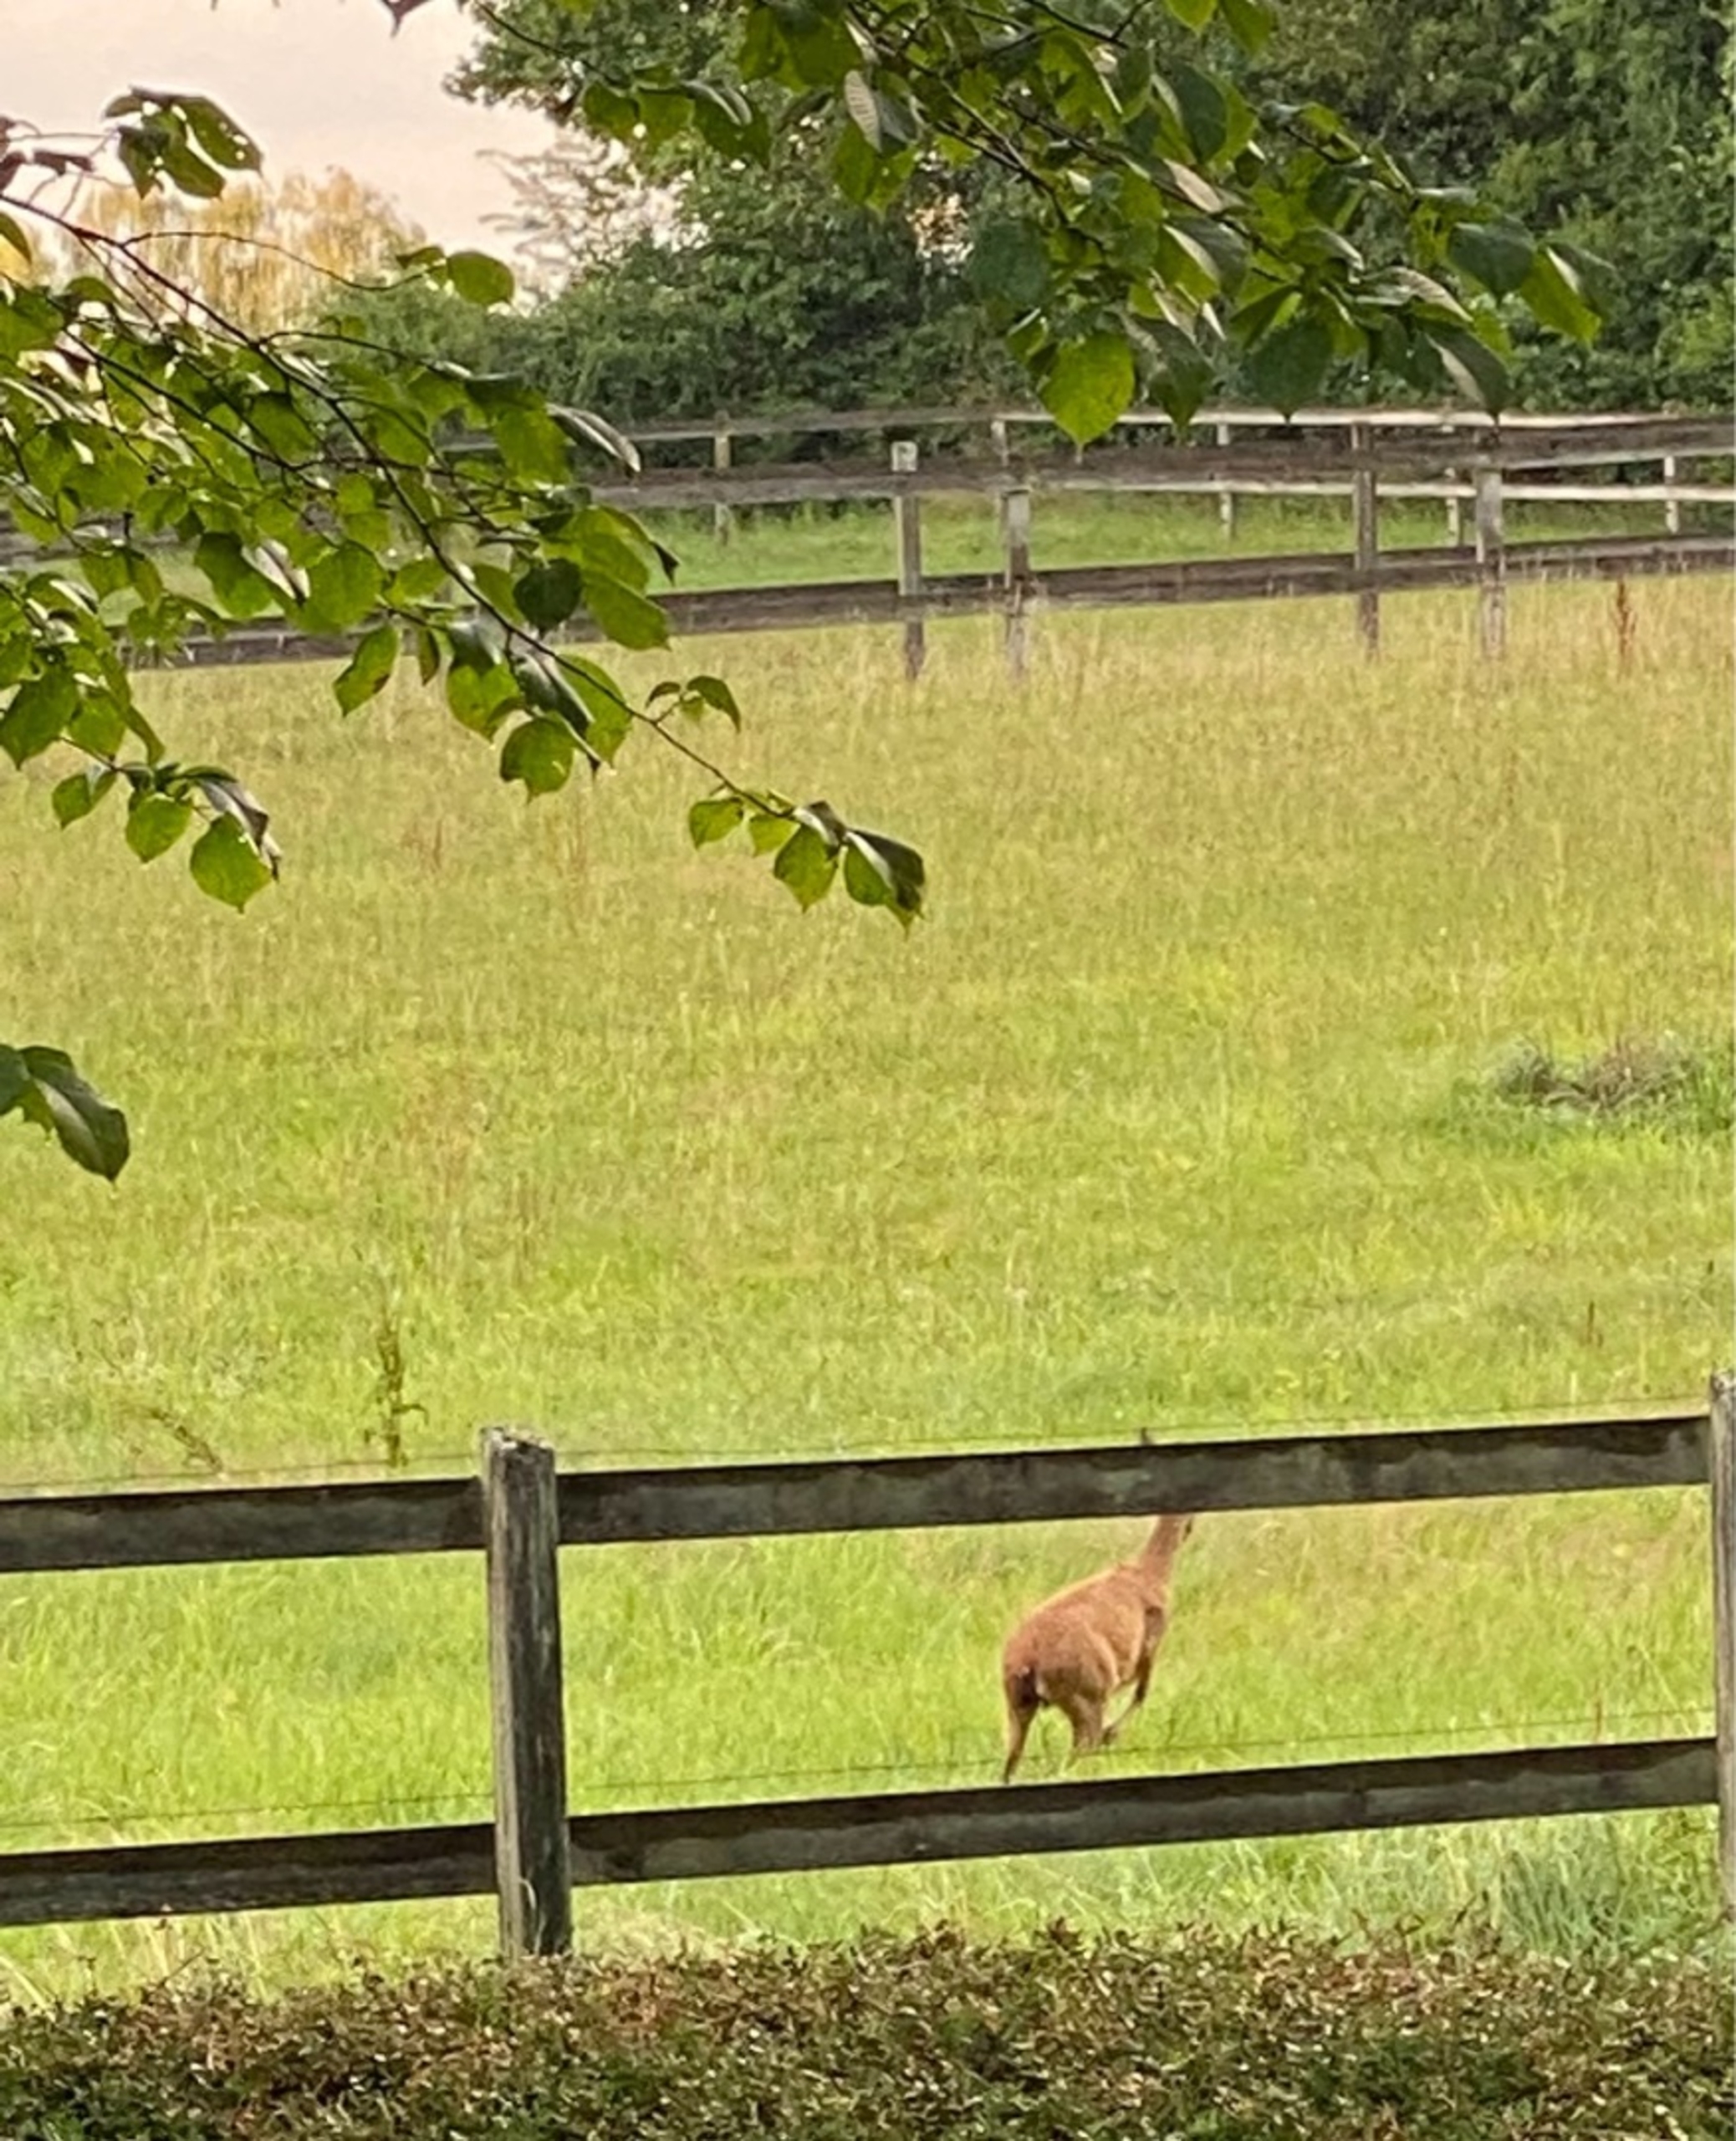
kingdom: Animalia
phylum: Chordata
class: Mammalia
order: Artiodactyla
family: Cervidae
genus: Capreolus
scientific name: Capreolus capreolus
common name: Rådyr
